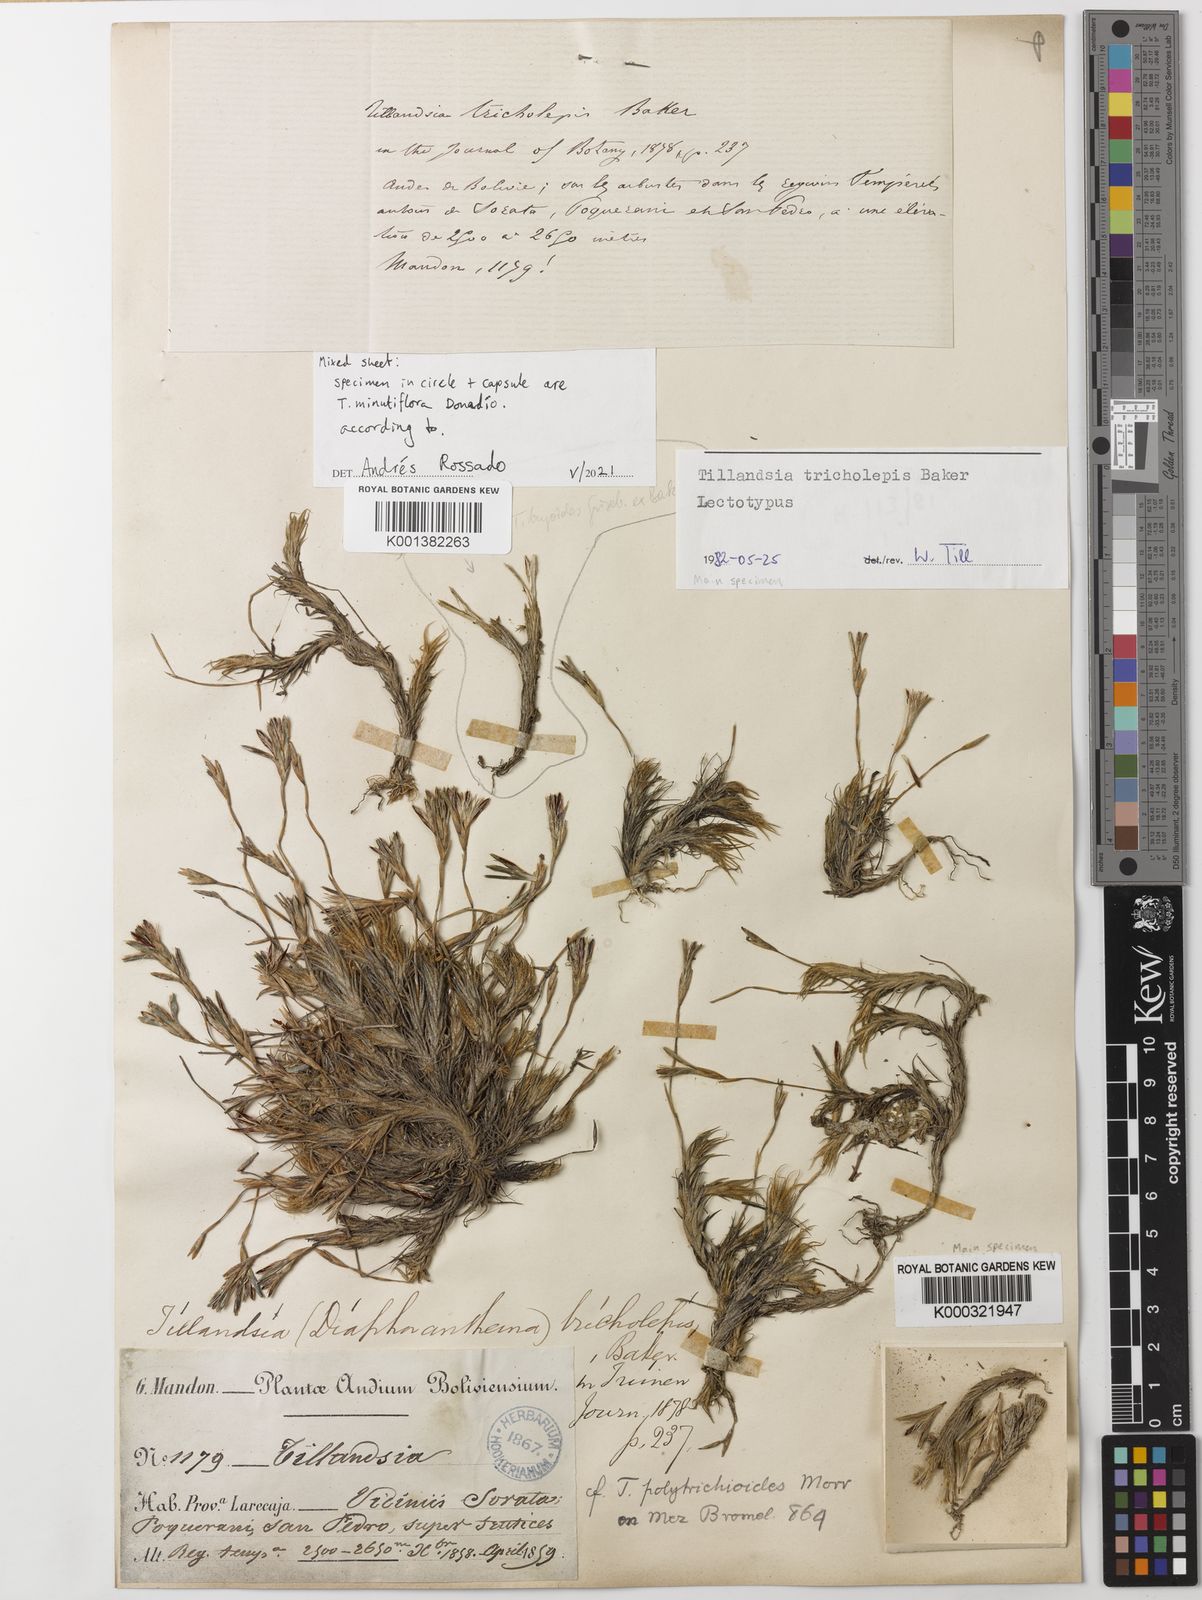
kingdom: Plantae
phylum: Tracheophyta
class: Liliopsida
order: Poales
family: Bromeliaceae
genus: Tillandsia
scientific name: Tillandsia tricholepis
